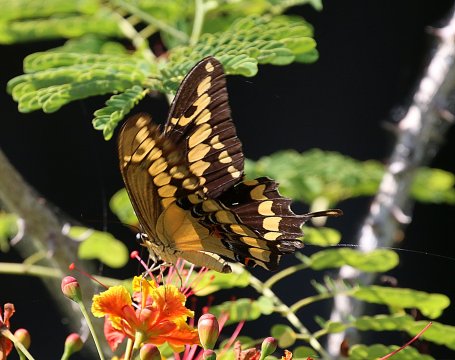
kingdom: Animalia
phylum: Arthropoda
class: Insecta
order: Lepidoptera
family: Papilionidae
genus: Papilio
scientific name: Papilio rumiko
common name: Western Giant Swallowtail
